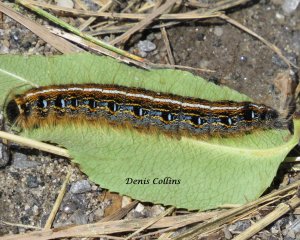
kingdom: Animalia
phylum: Arthropoda
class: Insecta
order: Lepidoptera
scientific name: Lepidoptera
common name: Butterflies
